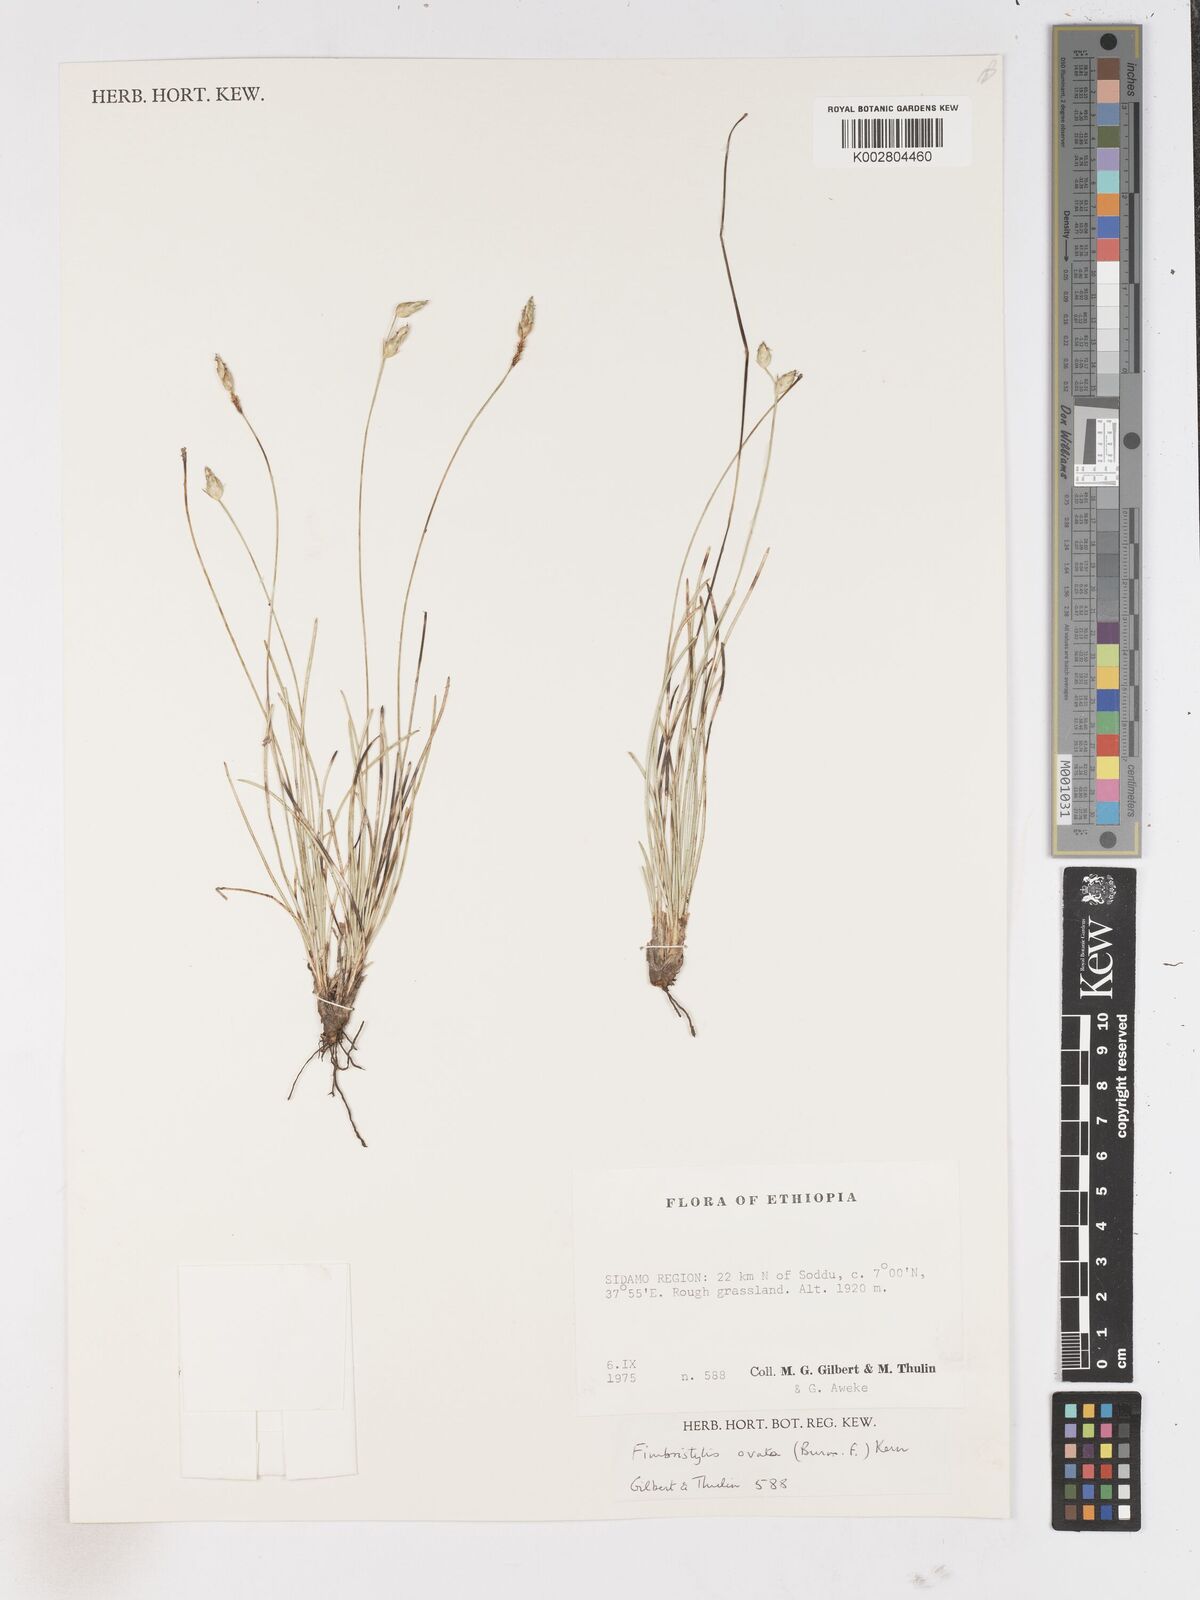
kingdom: Plantae
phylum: Tracheophyta
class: Liliopsida
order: Poales
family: Cyperaceae
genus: Abildgaardia
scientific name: Abildgaardia ovata
